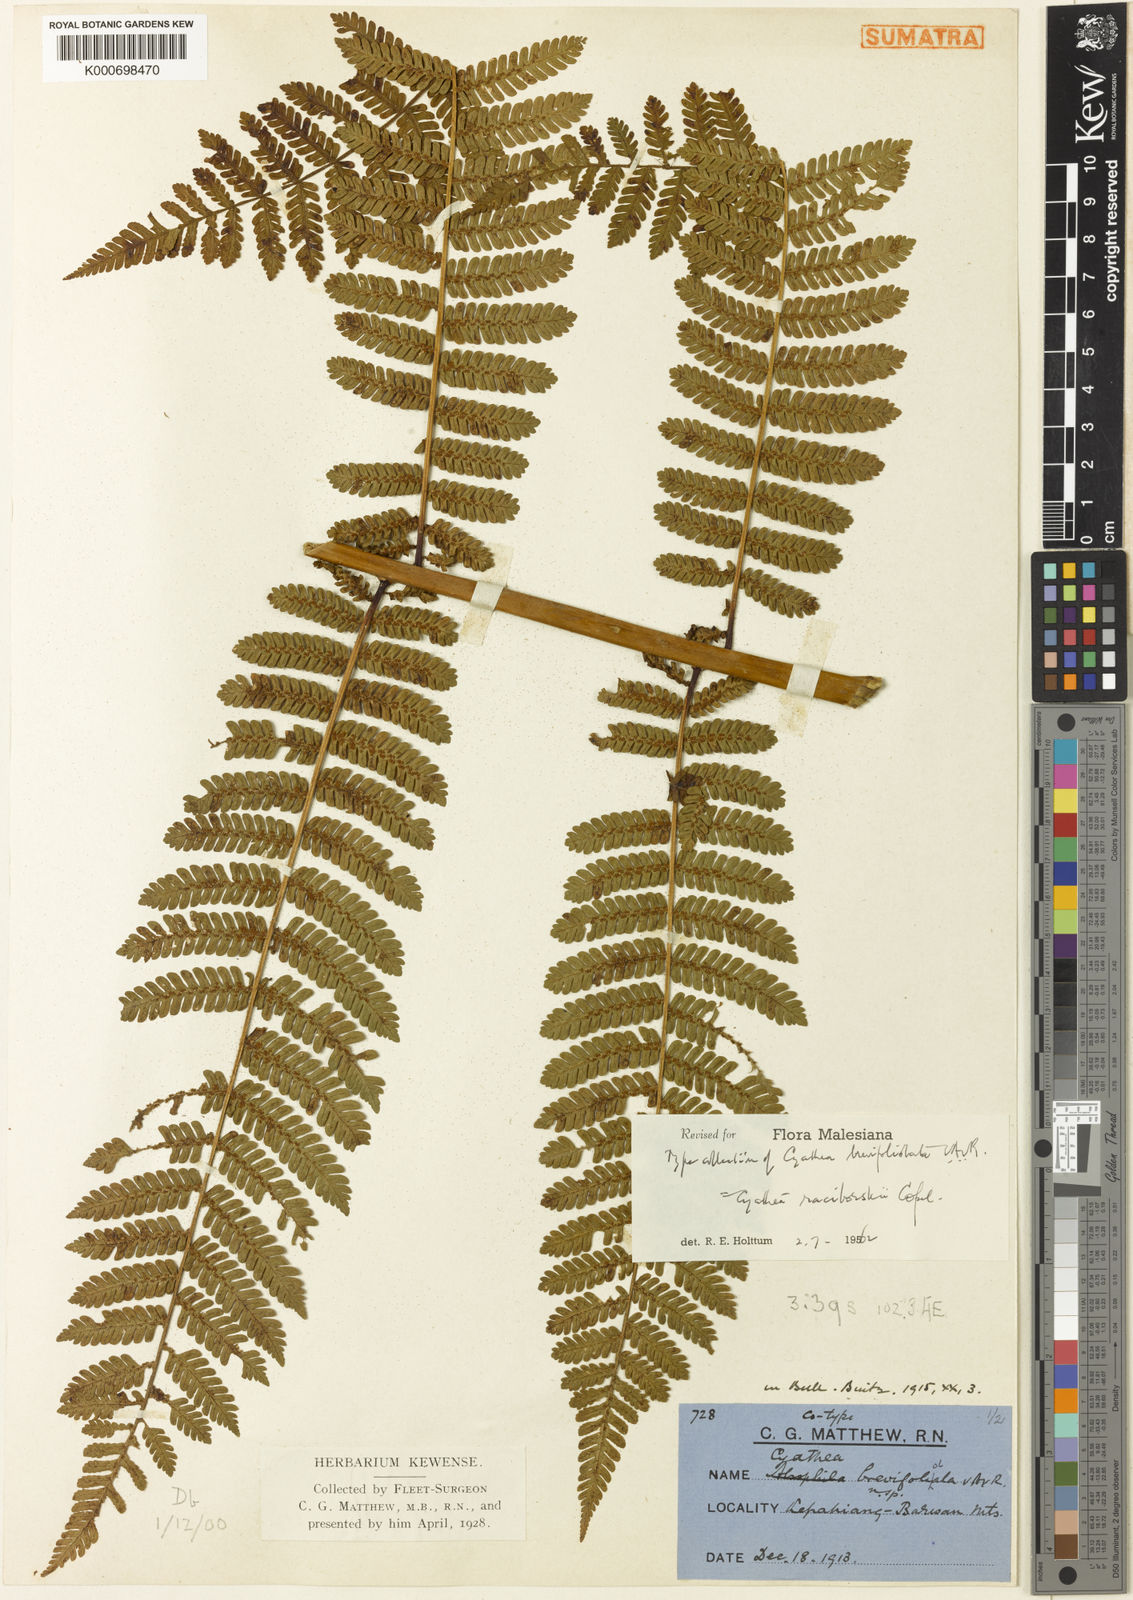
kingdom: Plantae
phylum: Tracheophyta
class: Polypodiopsida
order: Cyatheales
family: Cyatheaceae
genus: Alsophila
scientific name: Alsophila crenulata
